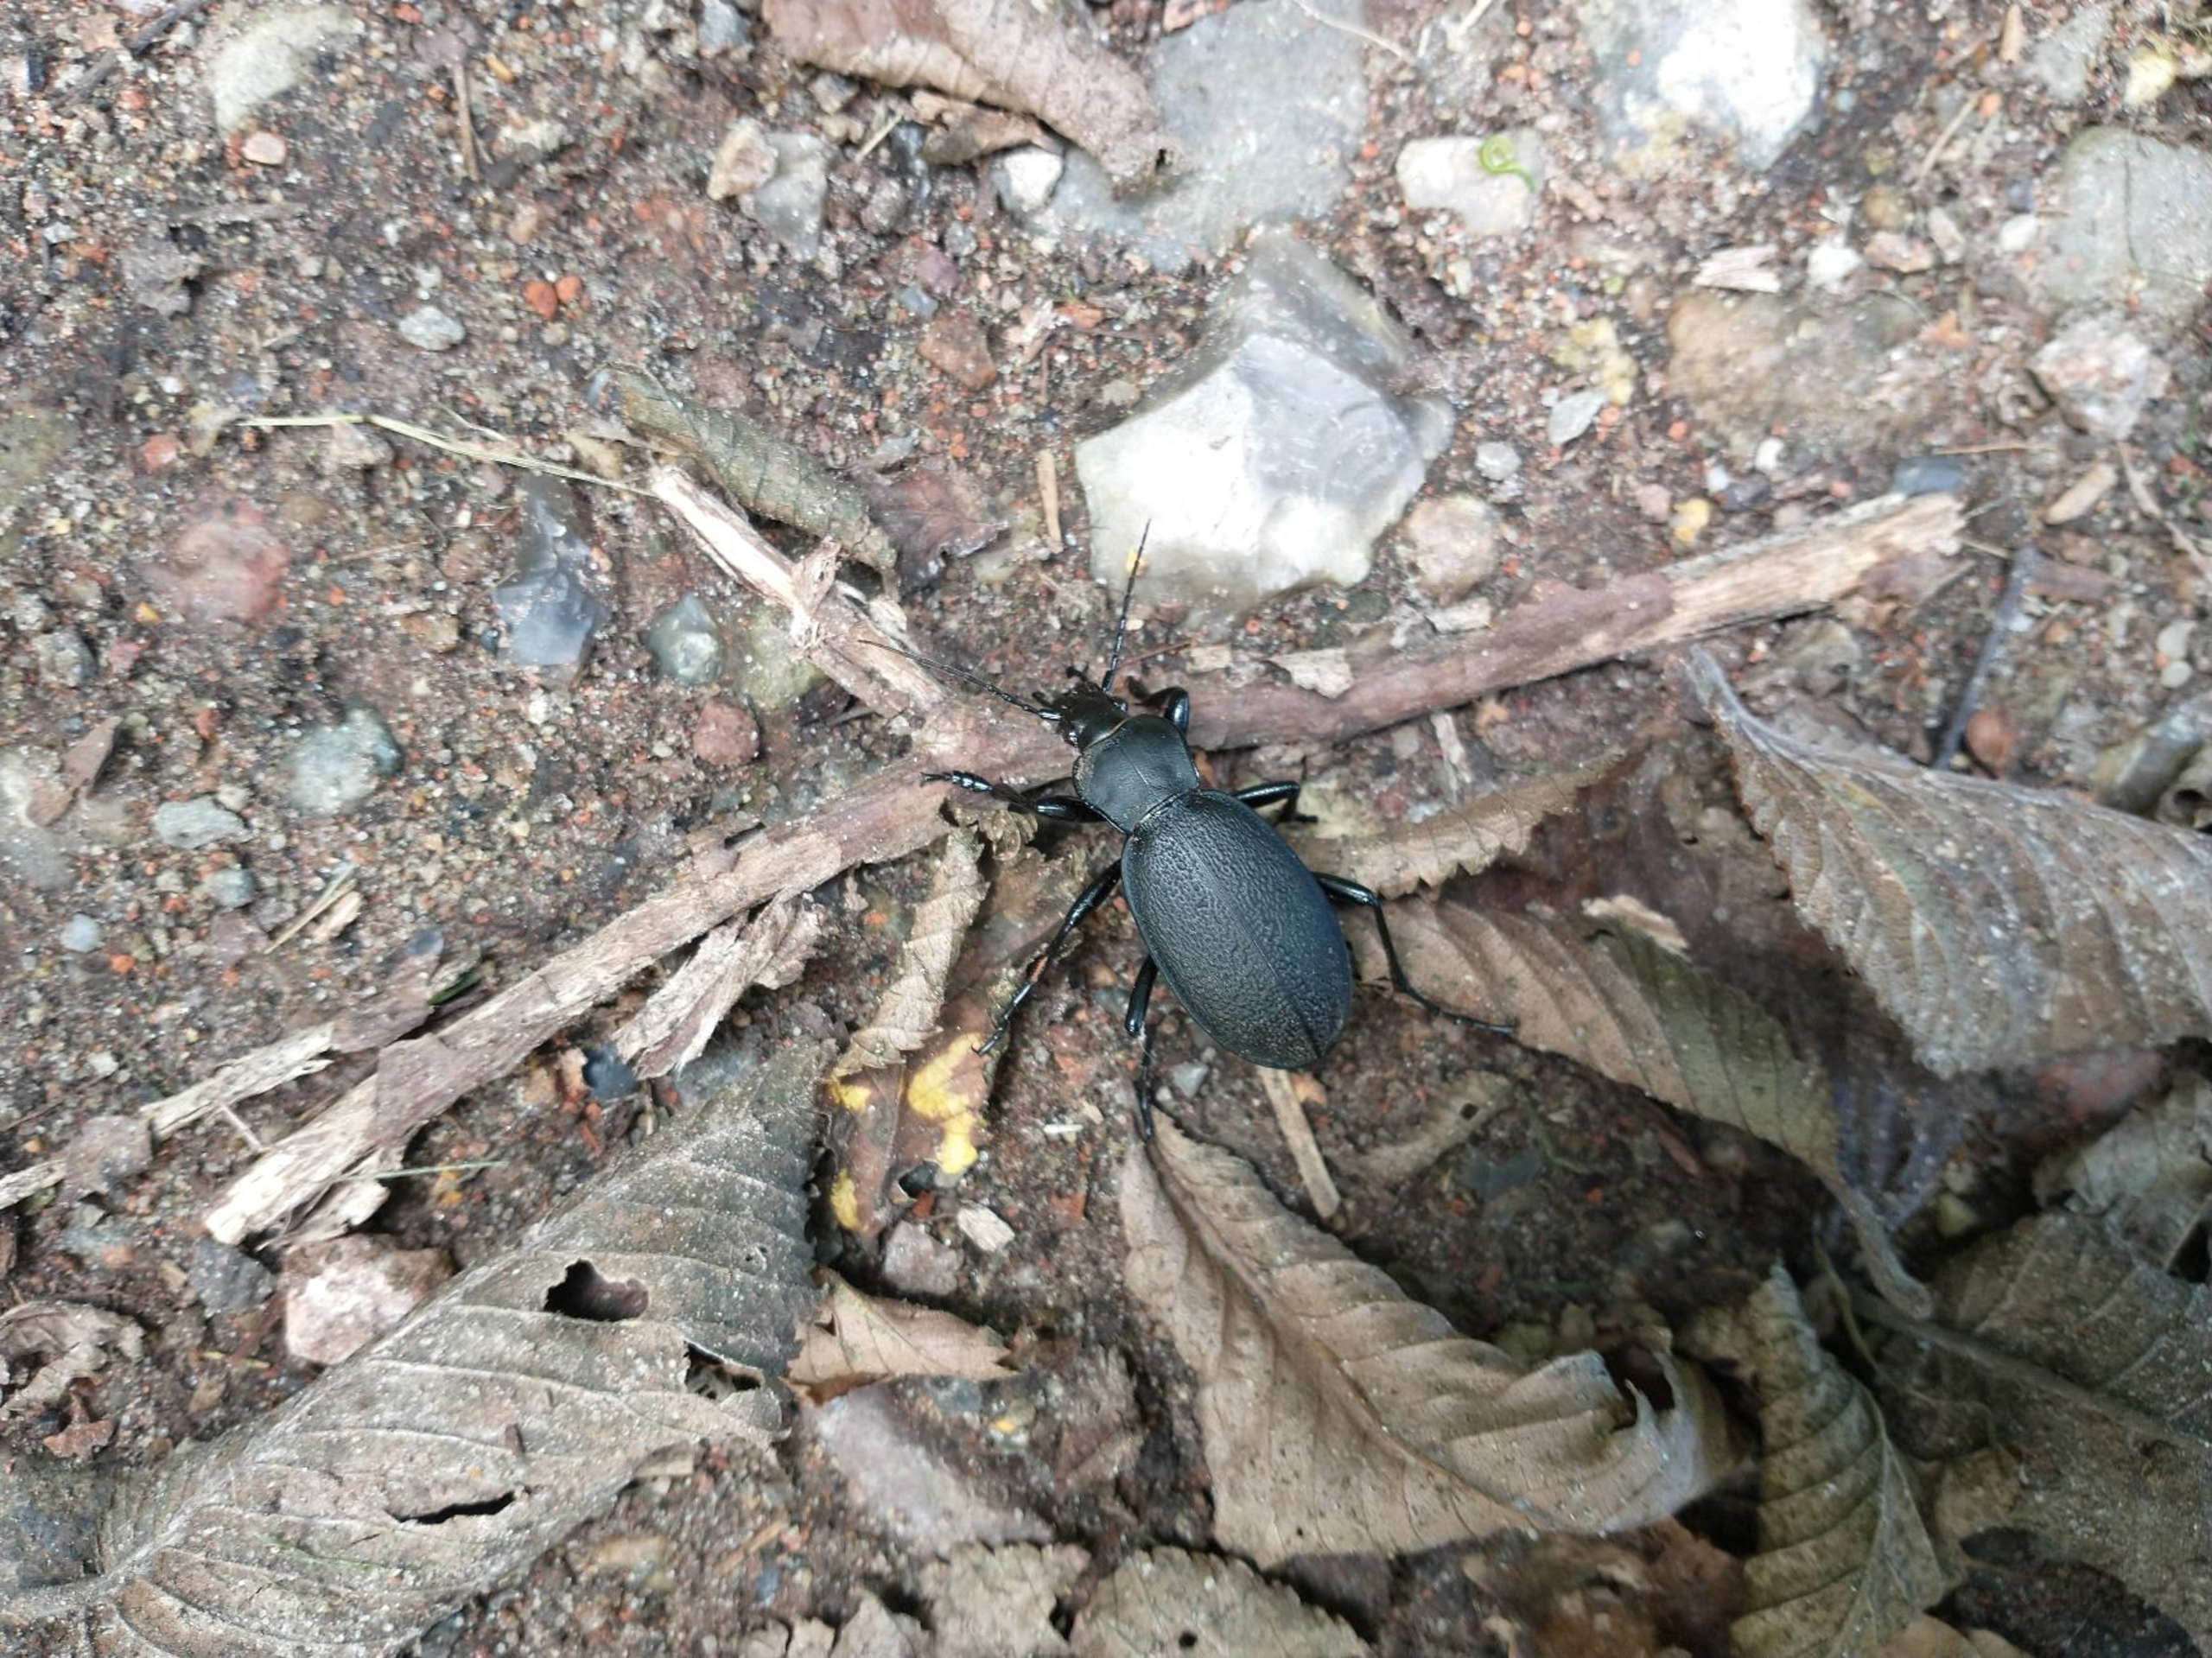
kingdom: Animalia
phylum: Arthropoda
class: Insecta
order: Coleoptera
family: Carabidae
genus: Carabus
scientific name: Carabus coriaceus
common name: Læderløber
